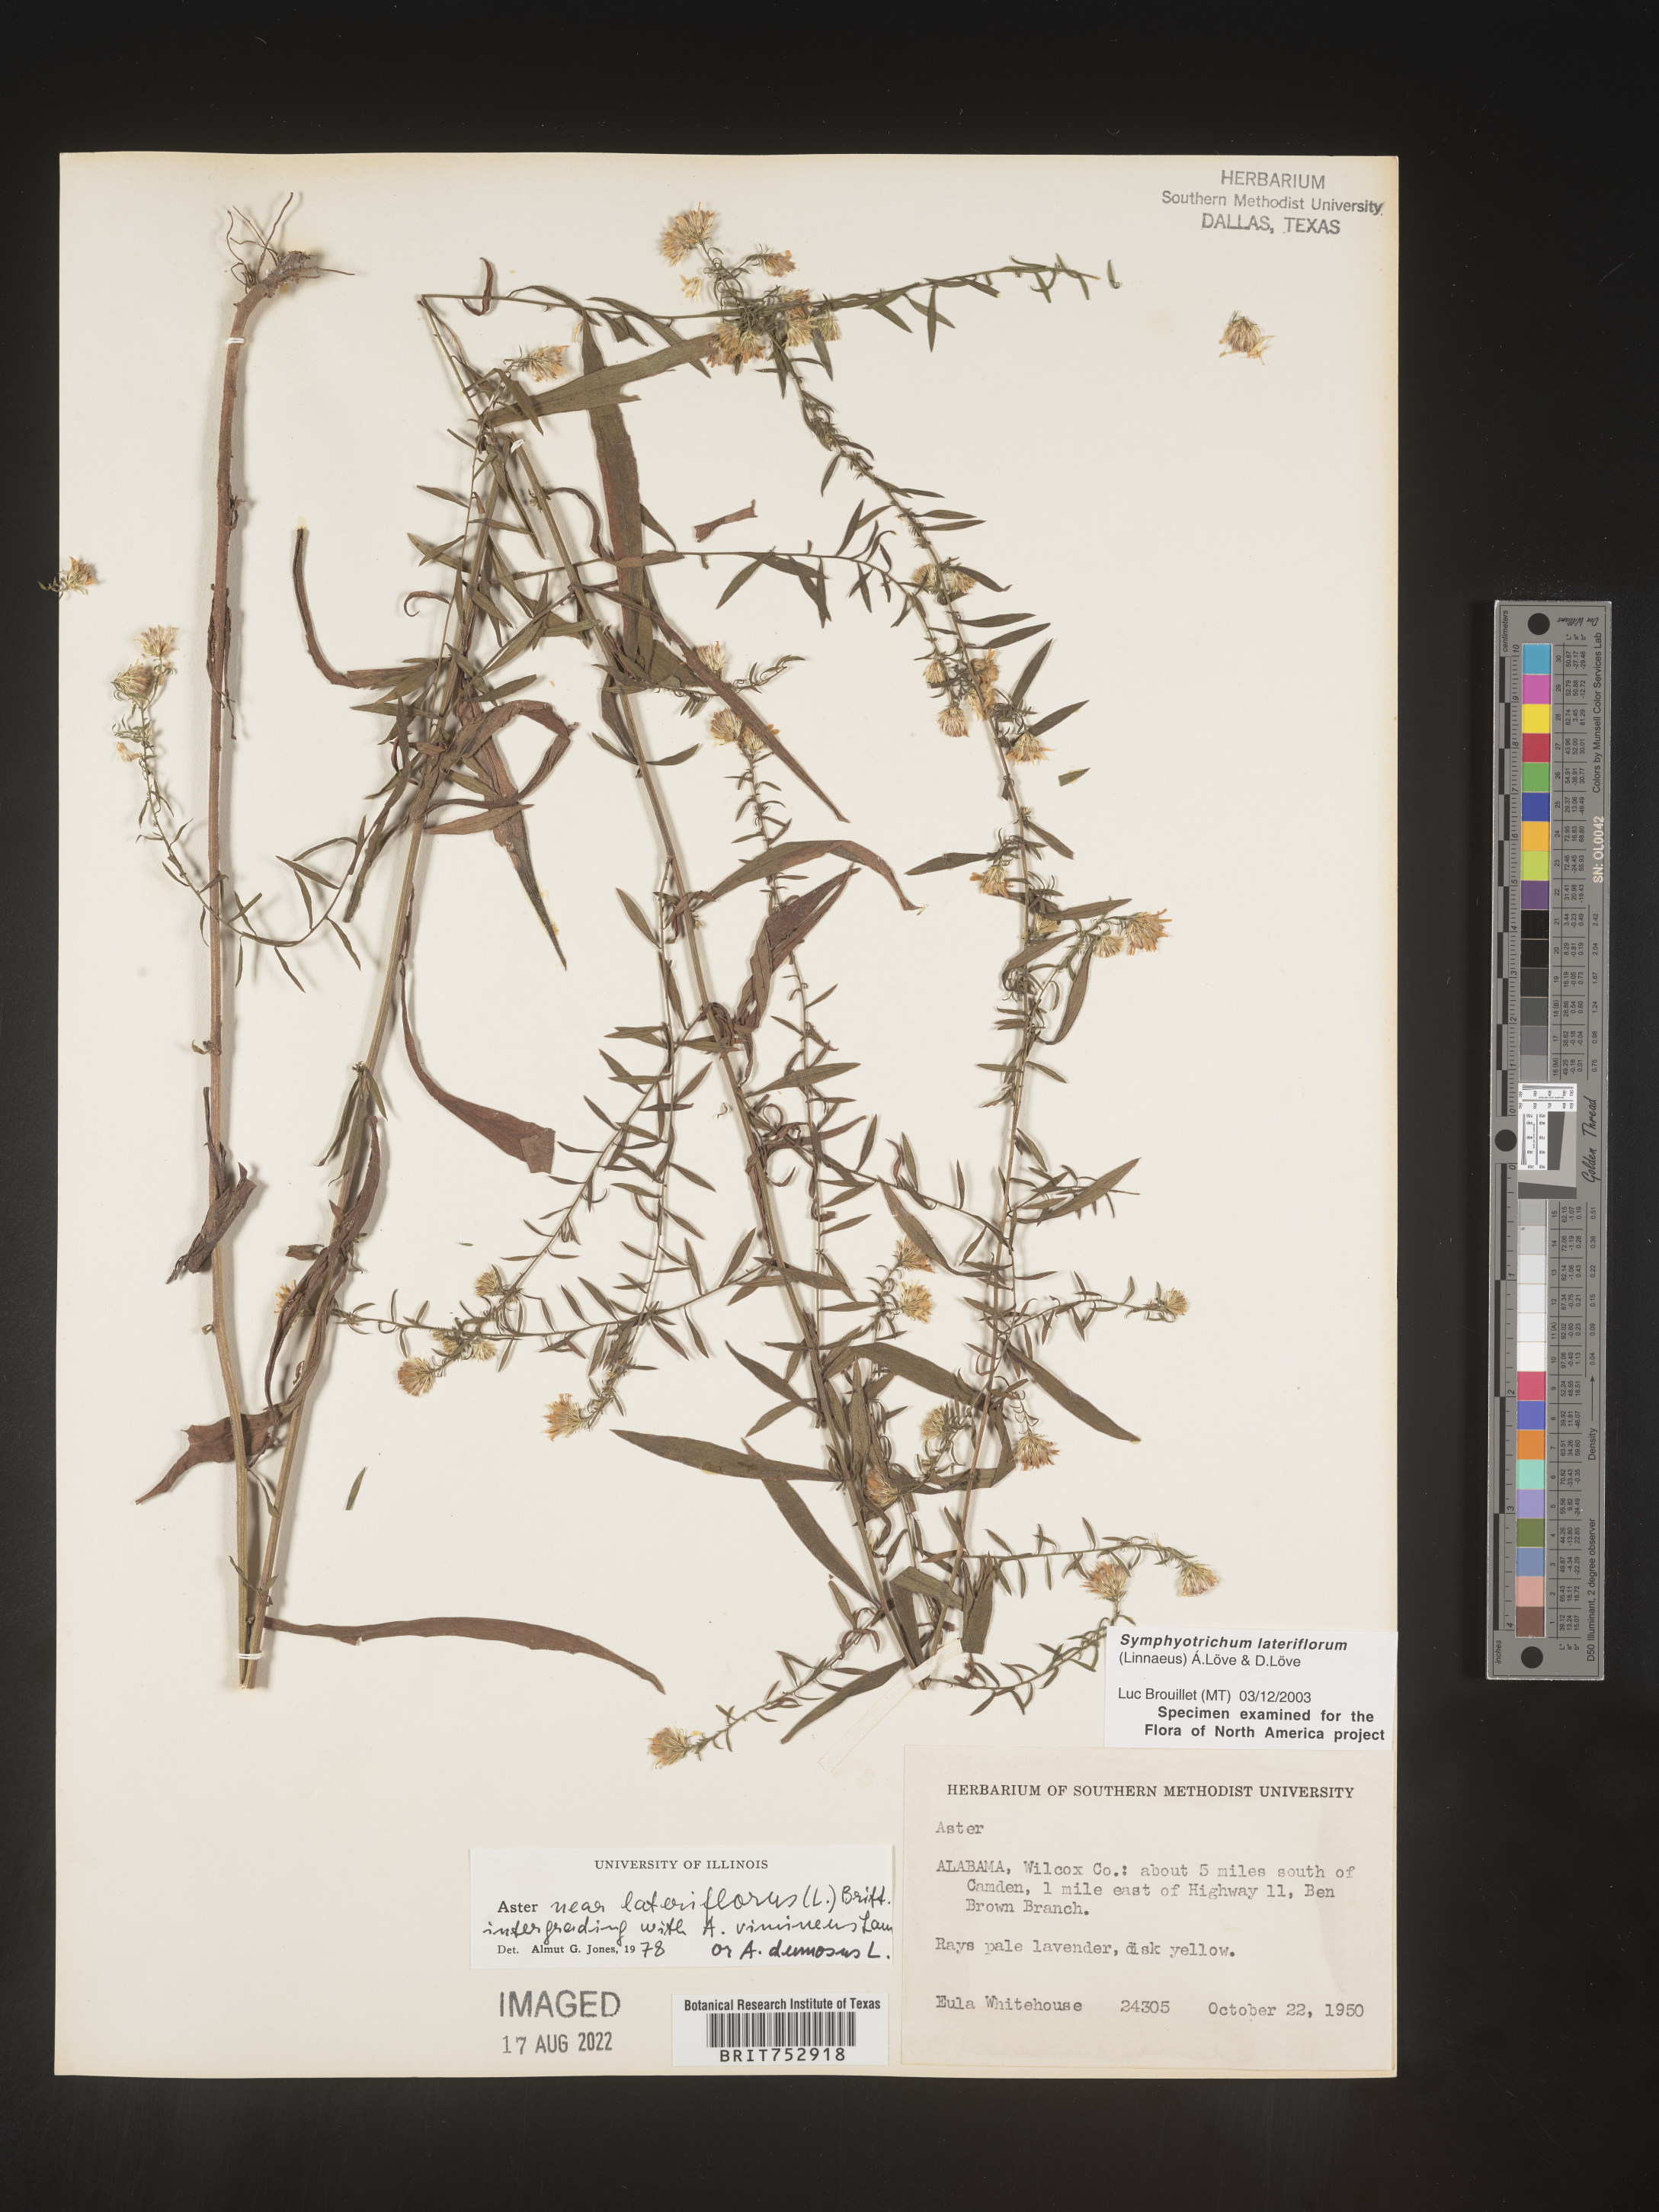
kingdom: Plantae
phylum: Tracheophyta
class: Magnoliopsida
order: Asterales
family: Asteraceae
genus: Symphyotrichum
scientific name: Symphyotrichum lateriflorum
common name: Calico aster
